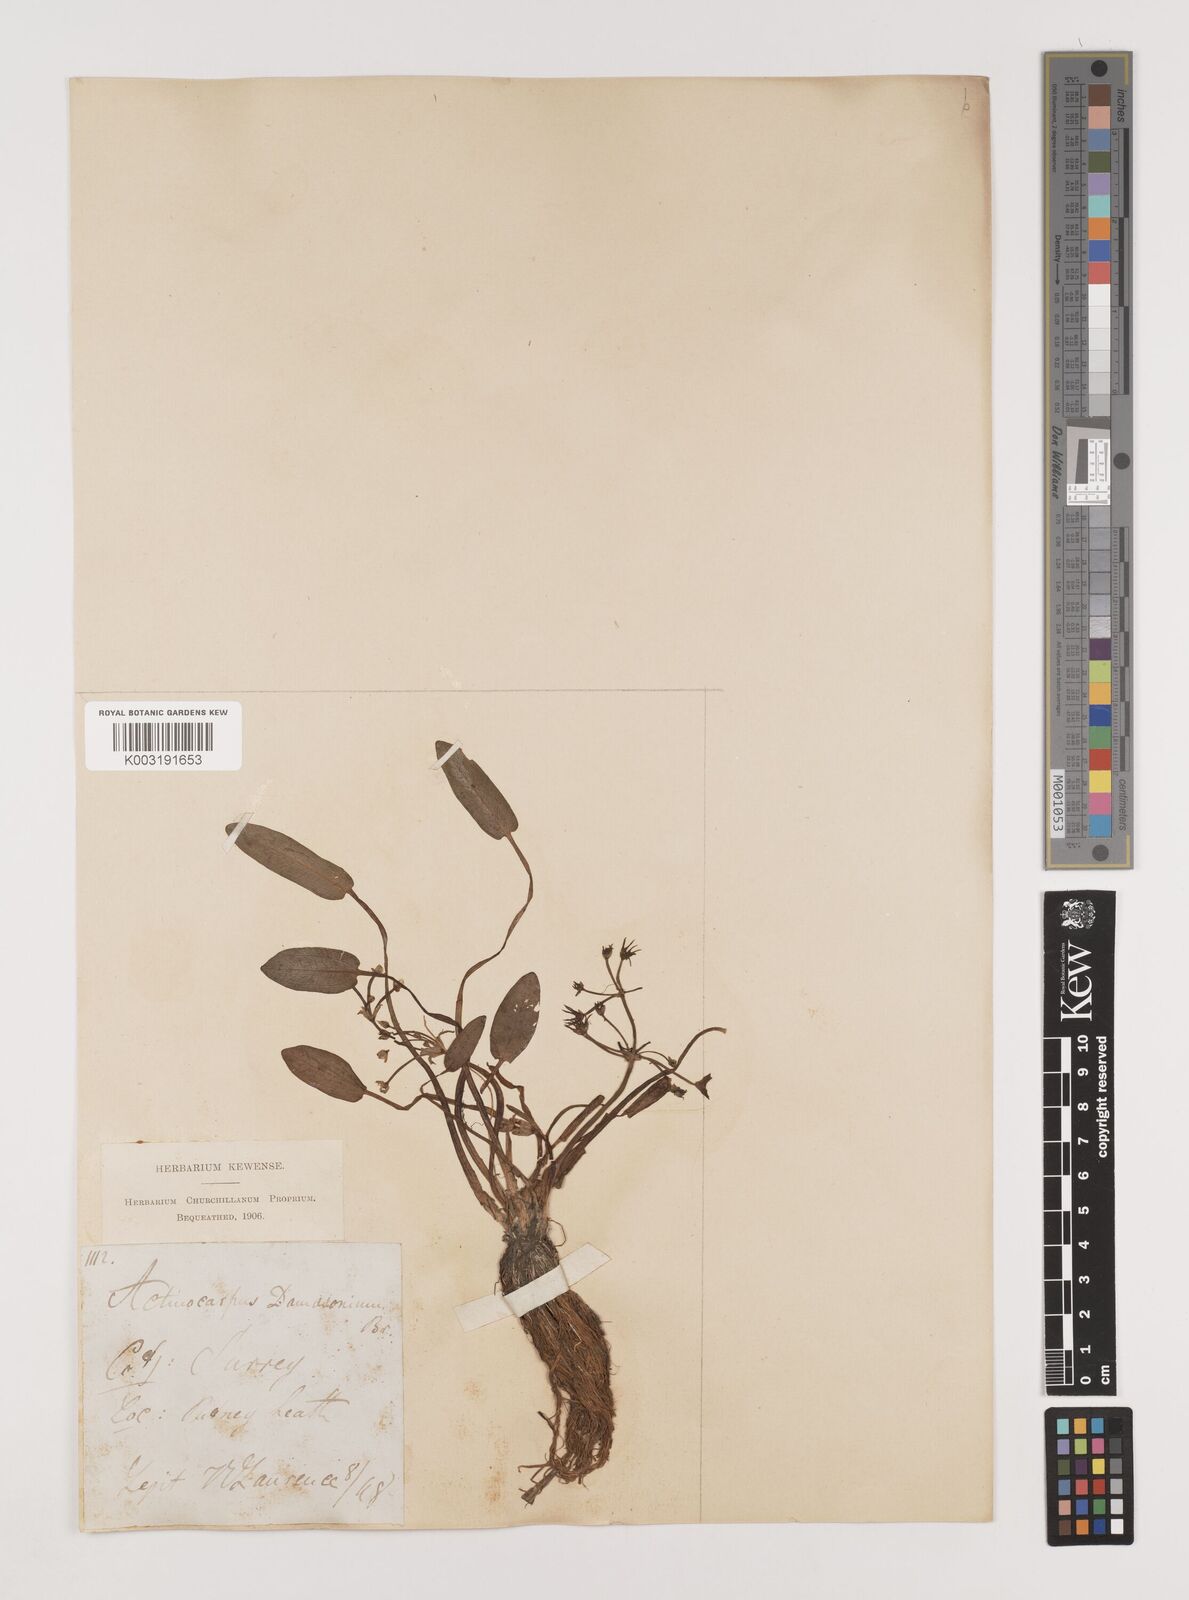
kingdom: Plantae
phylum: Tracheophyta
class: Liliopsida
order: Alismatales
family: Alismataceae
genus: Damasonium
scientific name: Damasonium alisma
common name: Starfruit
